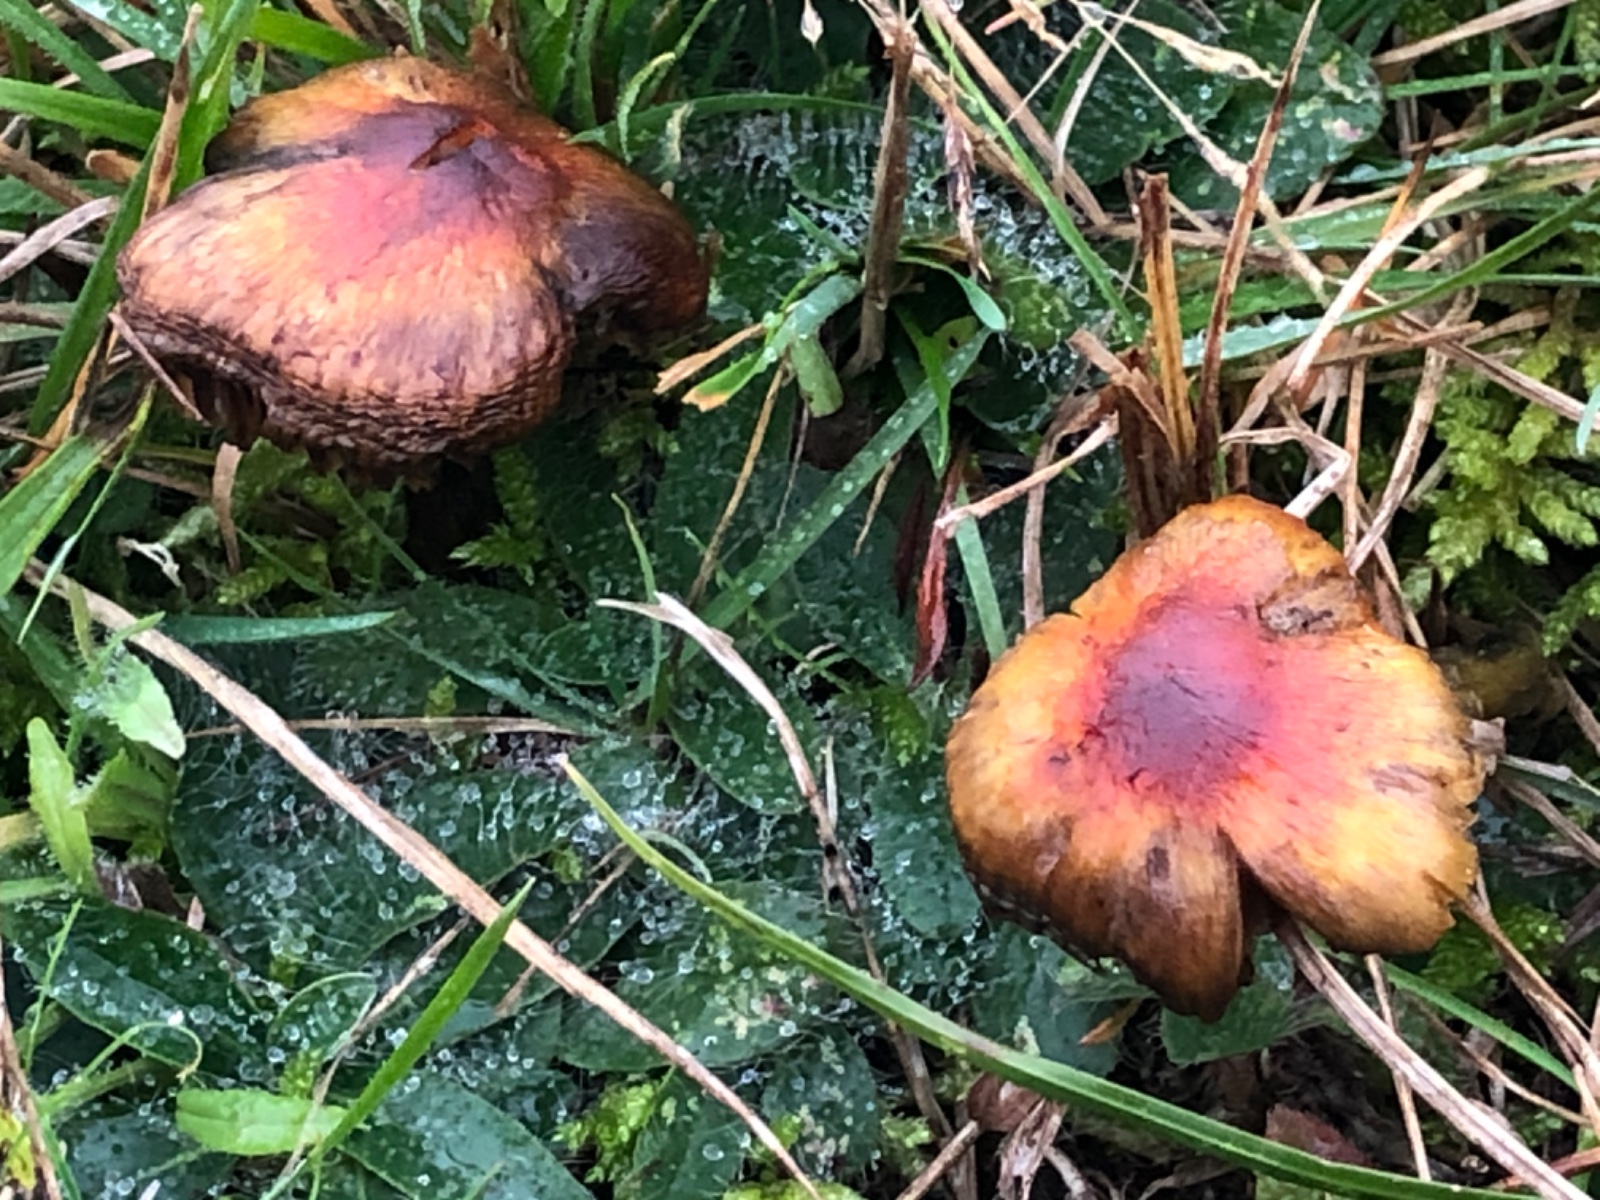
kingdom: Fungi
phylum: Basidiomycota
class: Agaricomycetes
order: Agaricales
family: Hygrophoraceae
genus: Hygrocybe
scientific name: Hygrocybe conica
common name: kegle-vokshat
